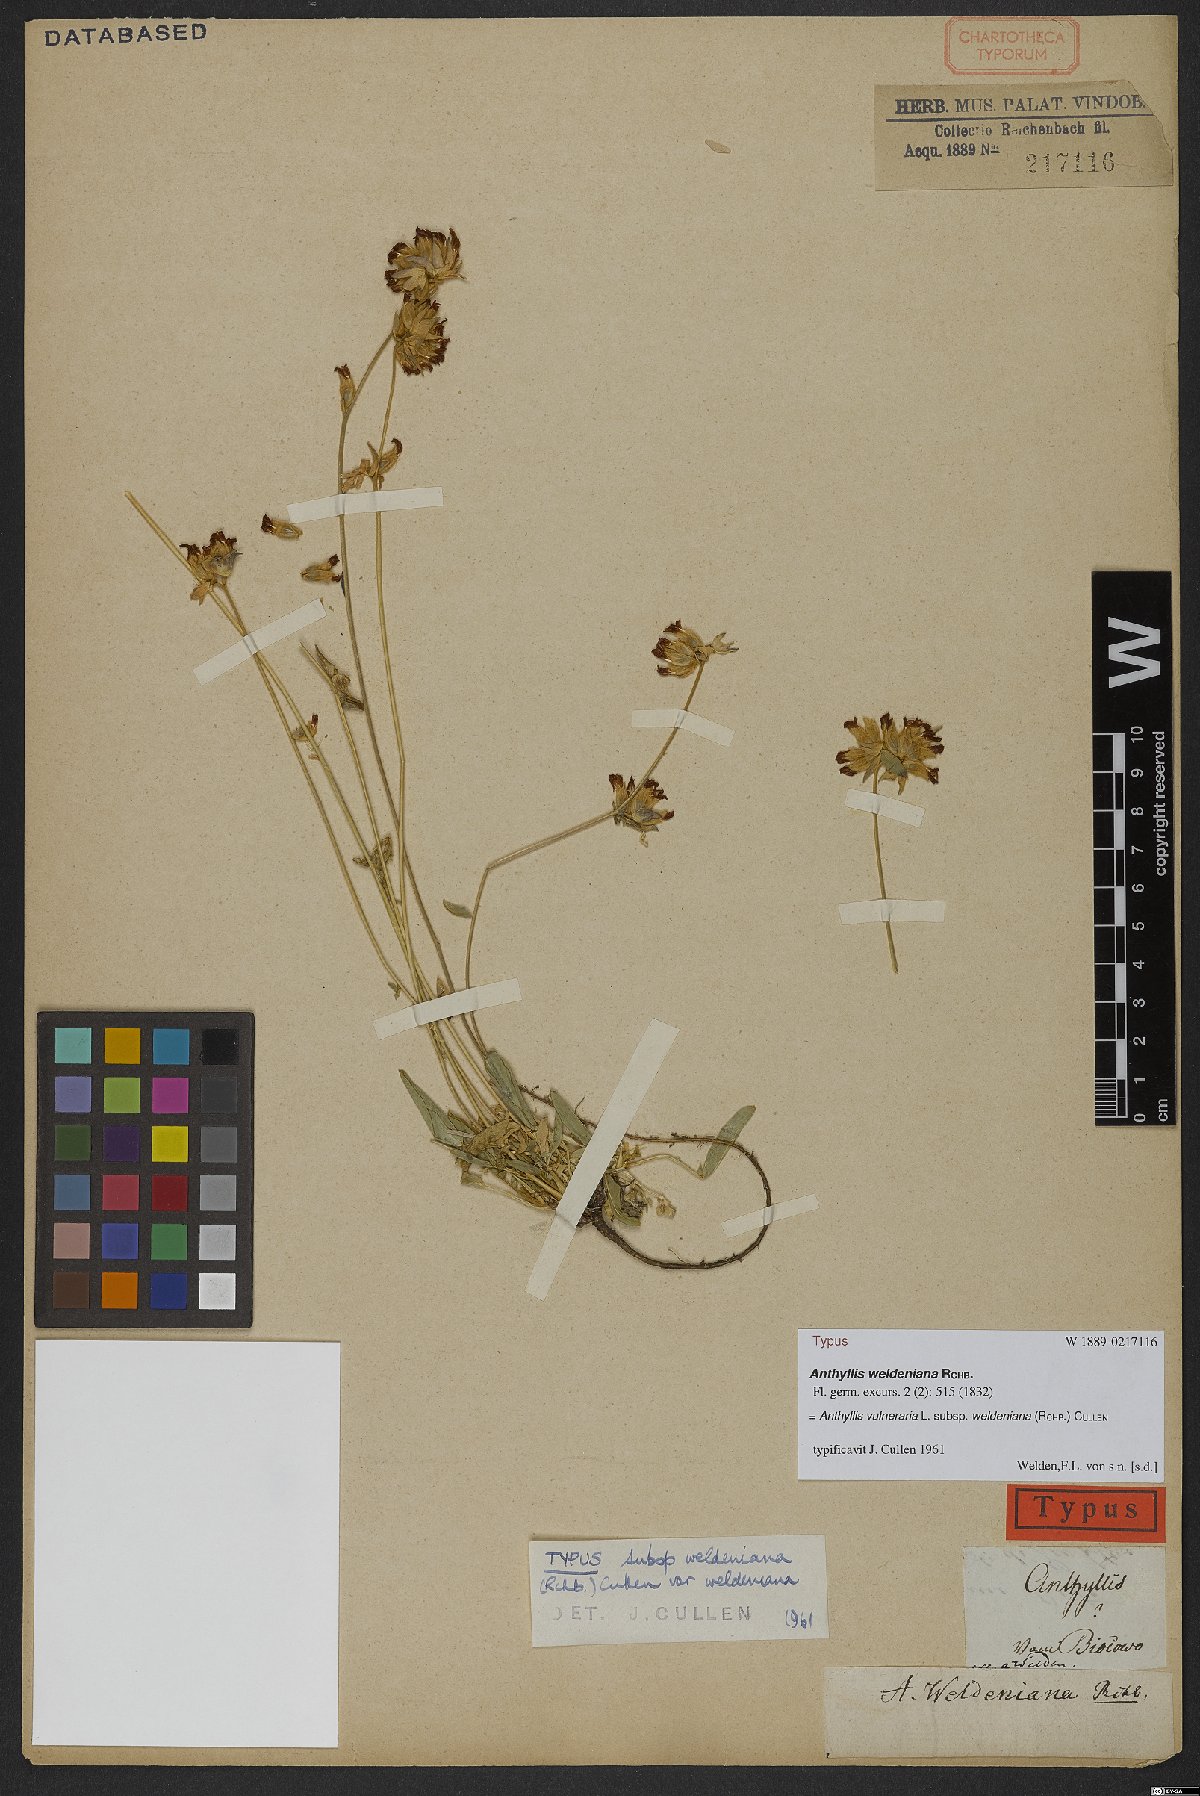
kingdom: Plantae
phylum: Tracheophyta
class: Magnoliopsida
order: Fabales
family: Fabaceae
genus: Anthyllis
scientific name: Anthyllis vulneraria
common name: Kidney vetch
